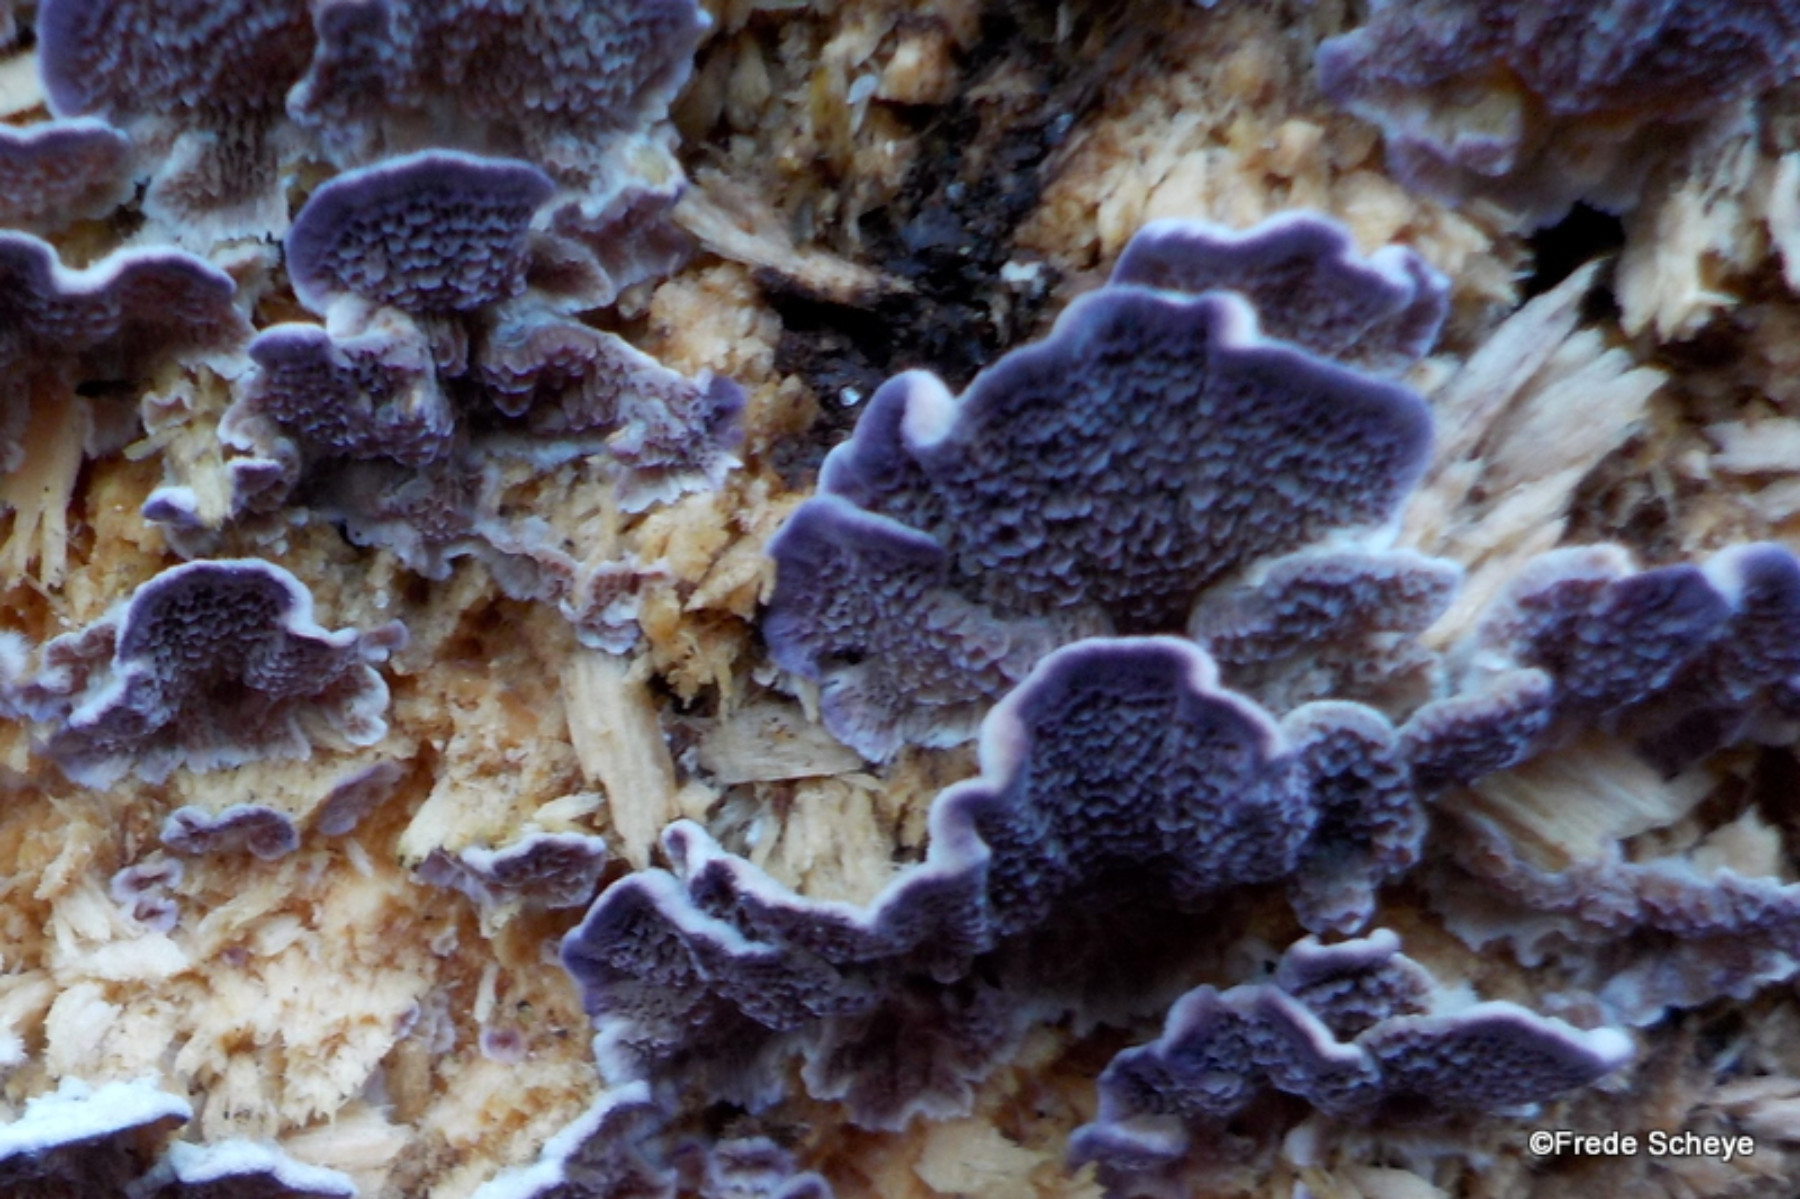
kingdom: Fungi
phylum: Basidiomycota
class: Agaricomycetes
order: Hymenochaetales
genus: Trichaptum
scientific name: Trichaptum abietinum
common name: almindelig violporesvamp
